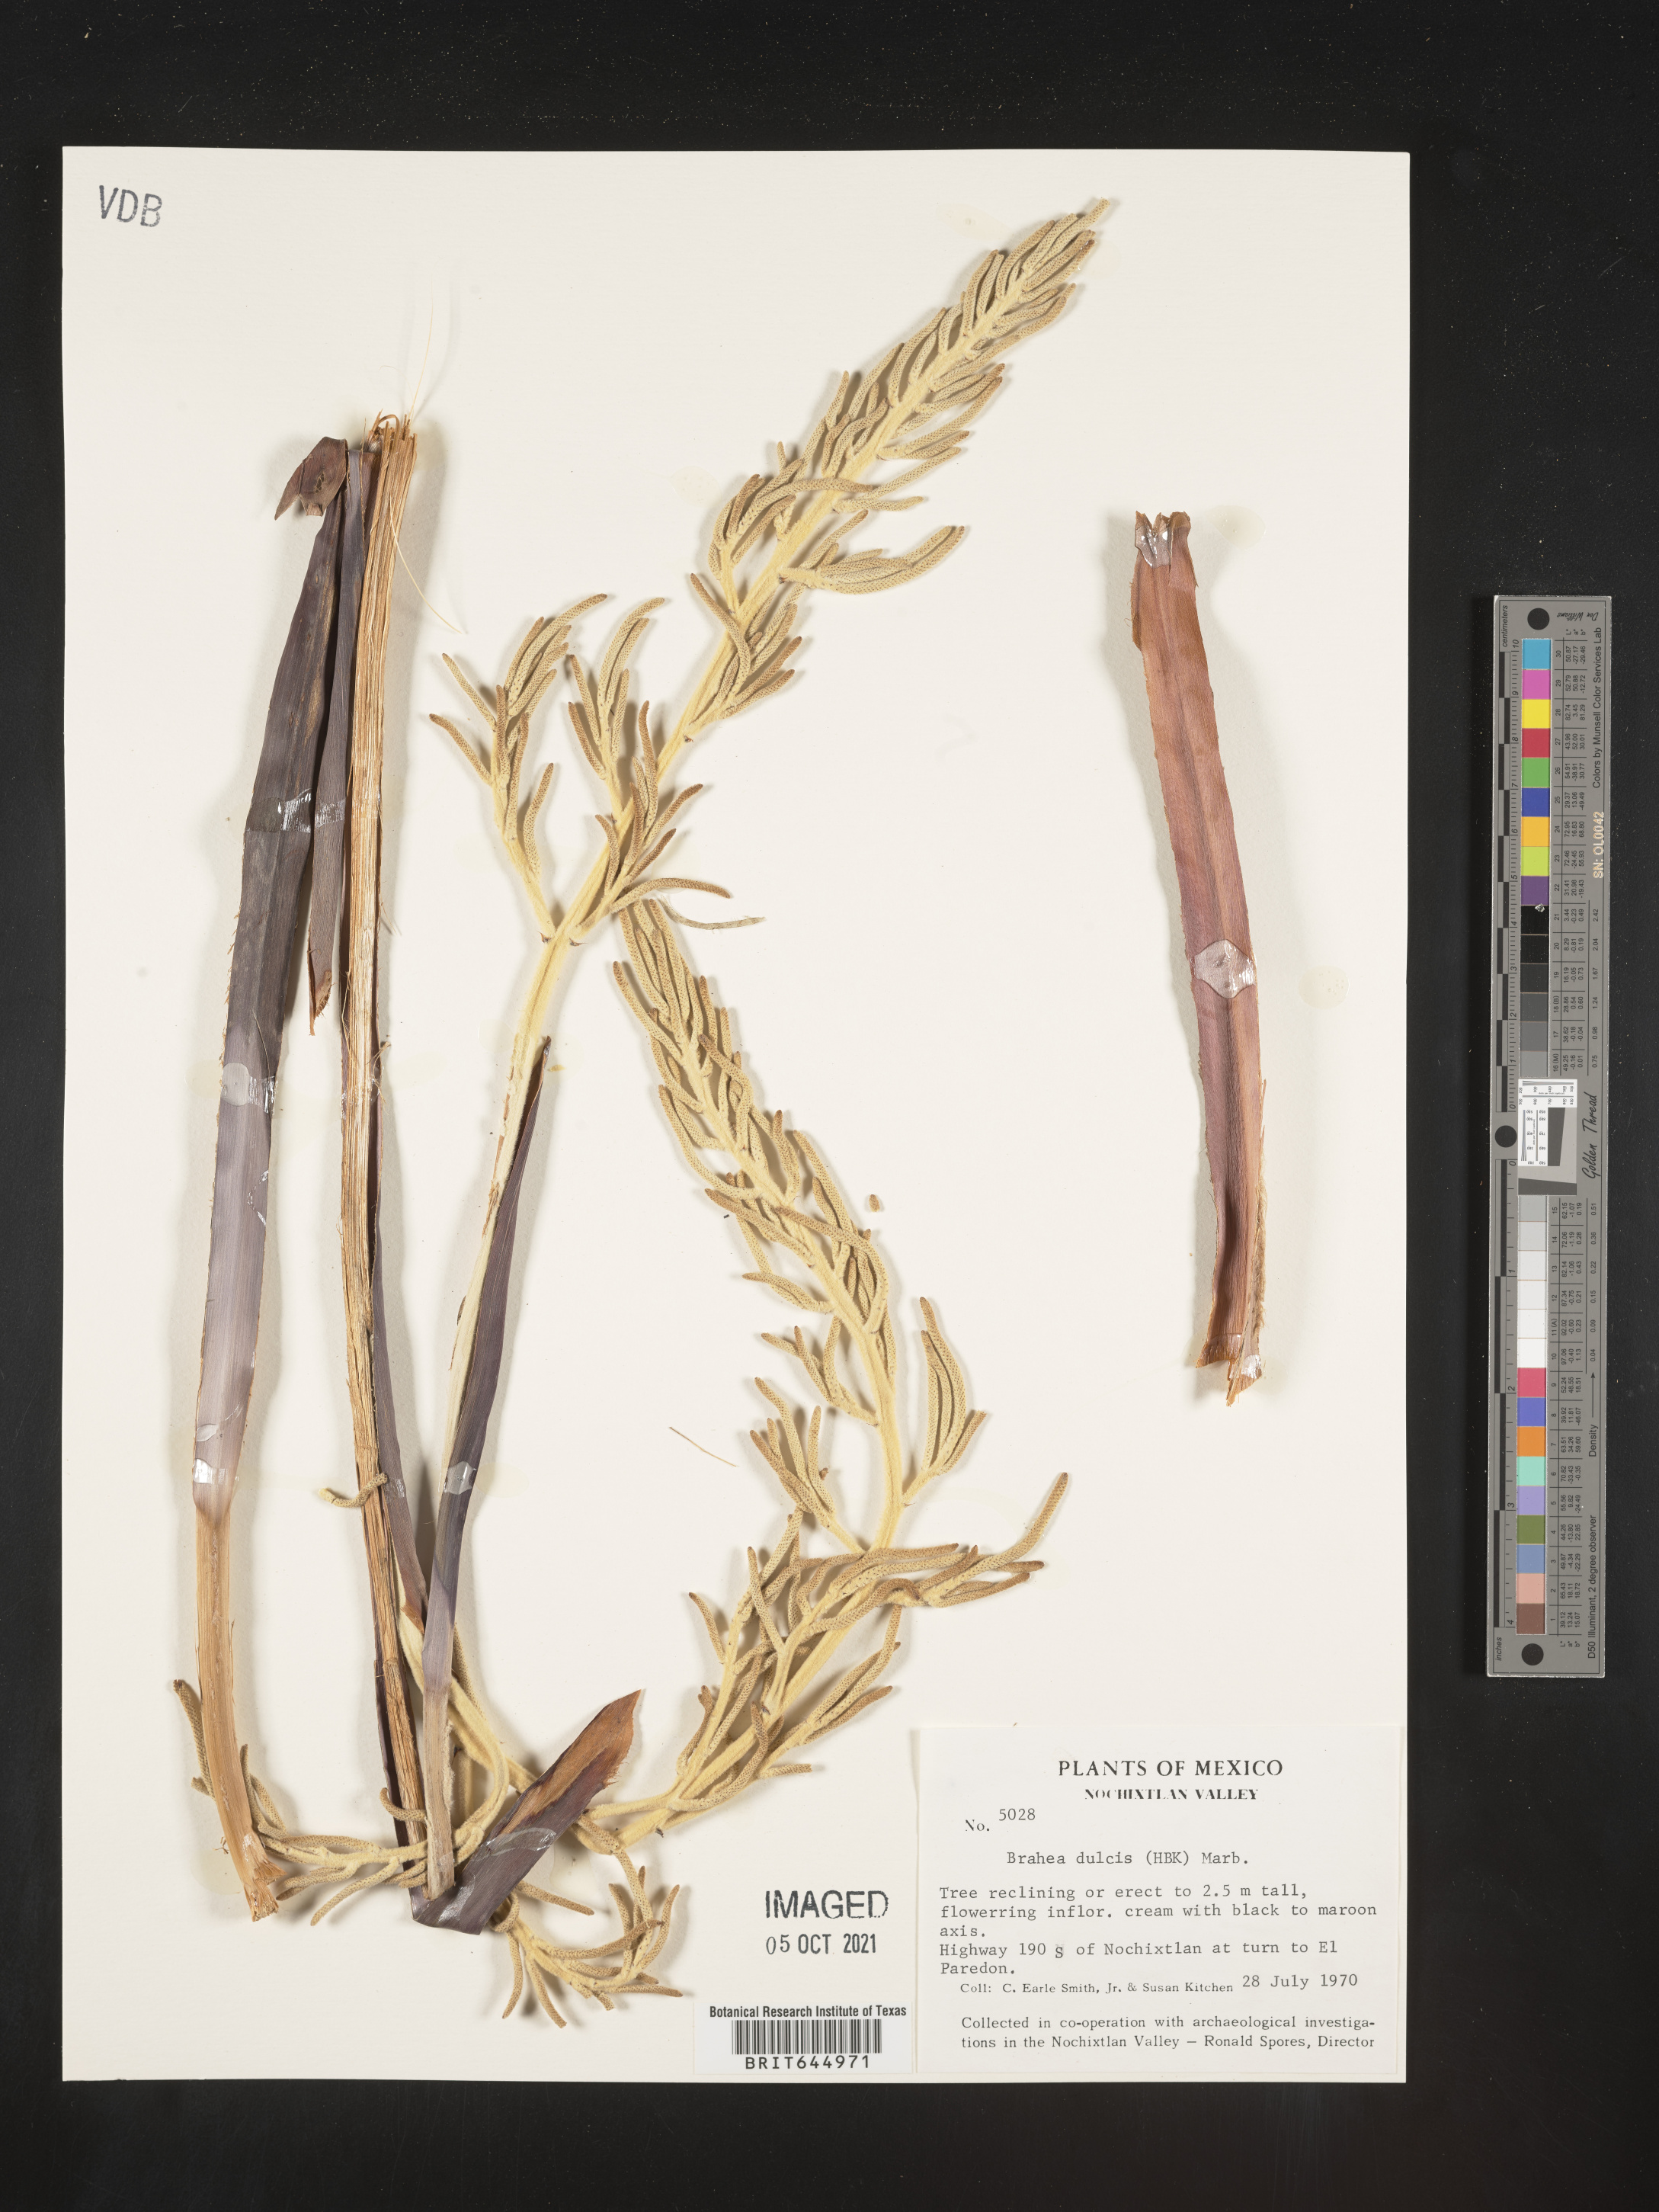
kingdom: Plantae
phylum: Tracheophyta
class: Liliopsida
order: Arecales
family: Arecaceae
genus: Brahea
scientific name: Brahea
